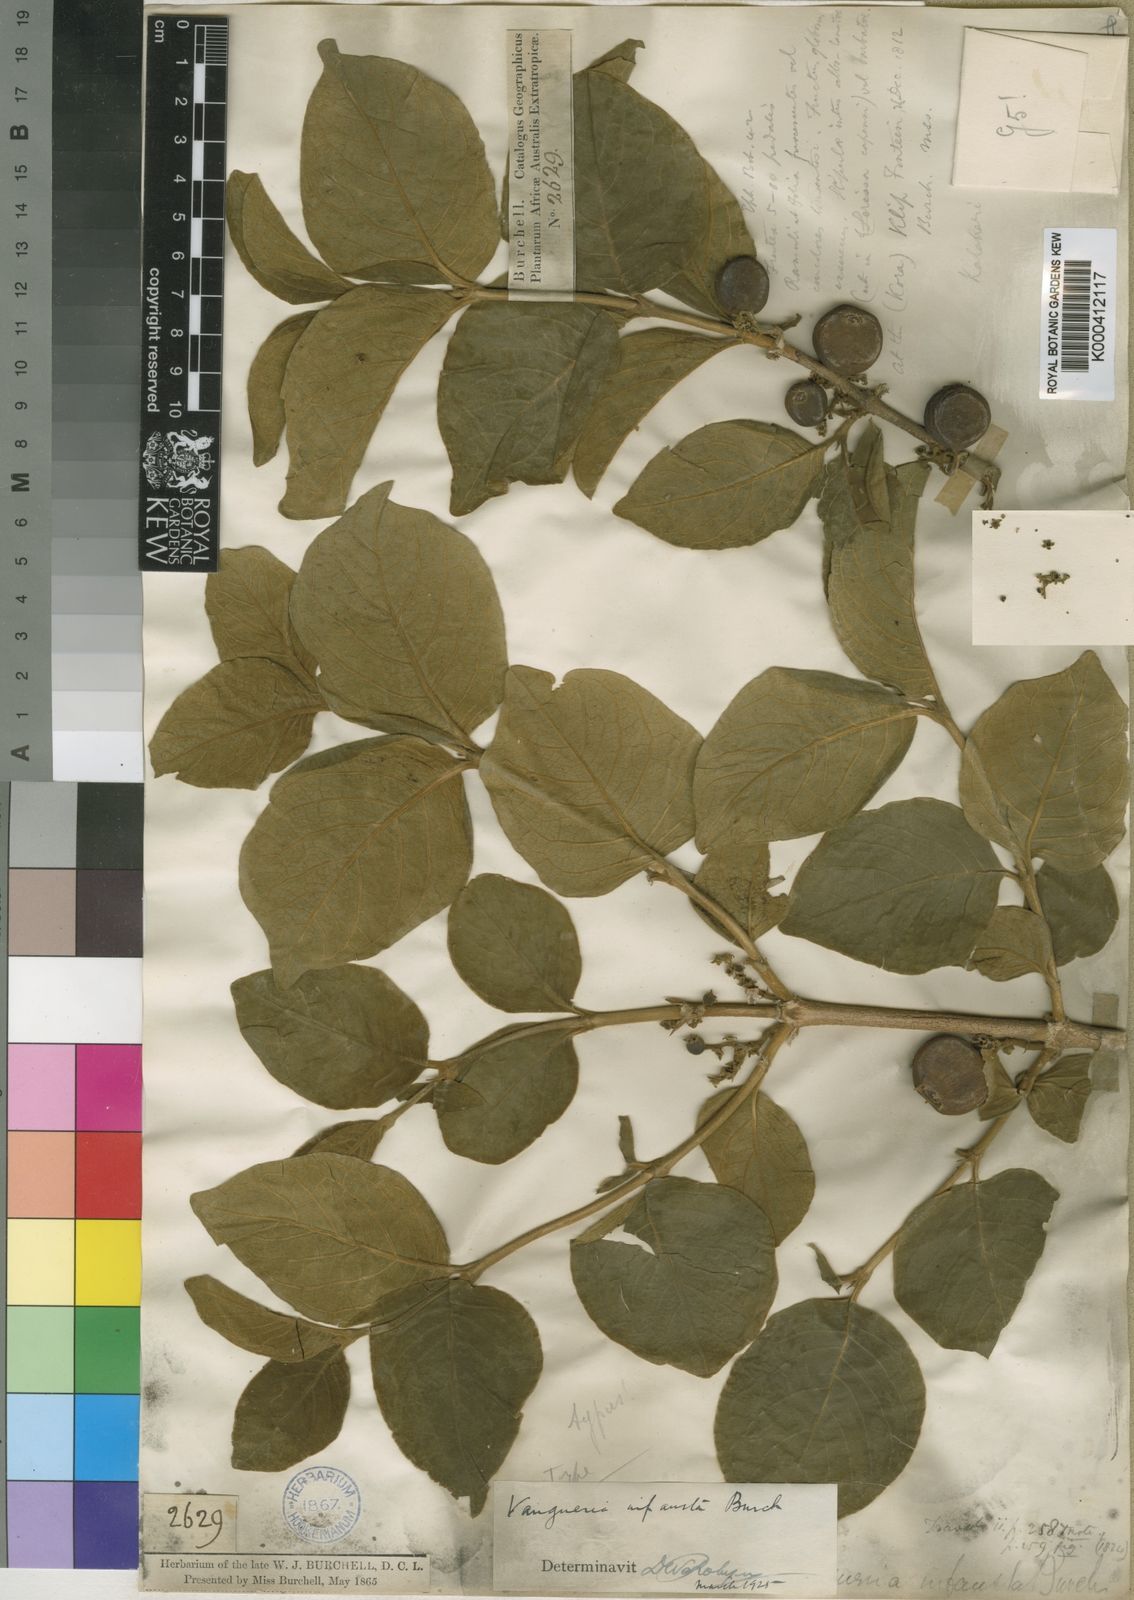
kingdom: Plantae
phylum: Tracheophyta
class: Magnoliopsida
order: Gentianales
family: Rubiaceae
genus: Vangueria
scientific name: Vangueria infausta
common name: Medlar
